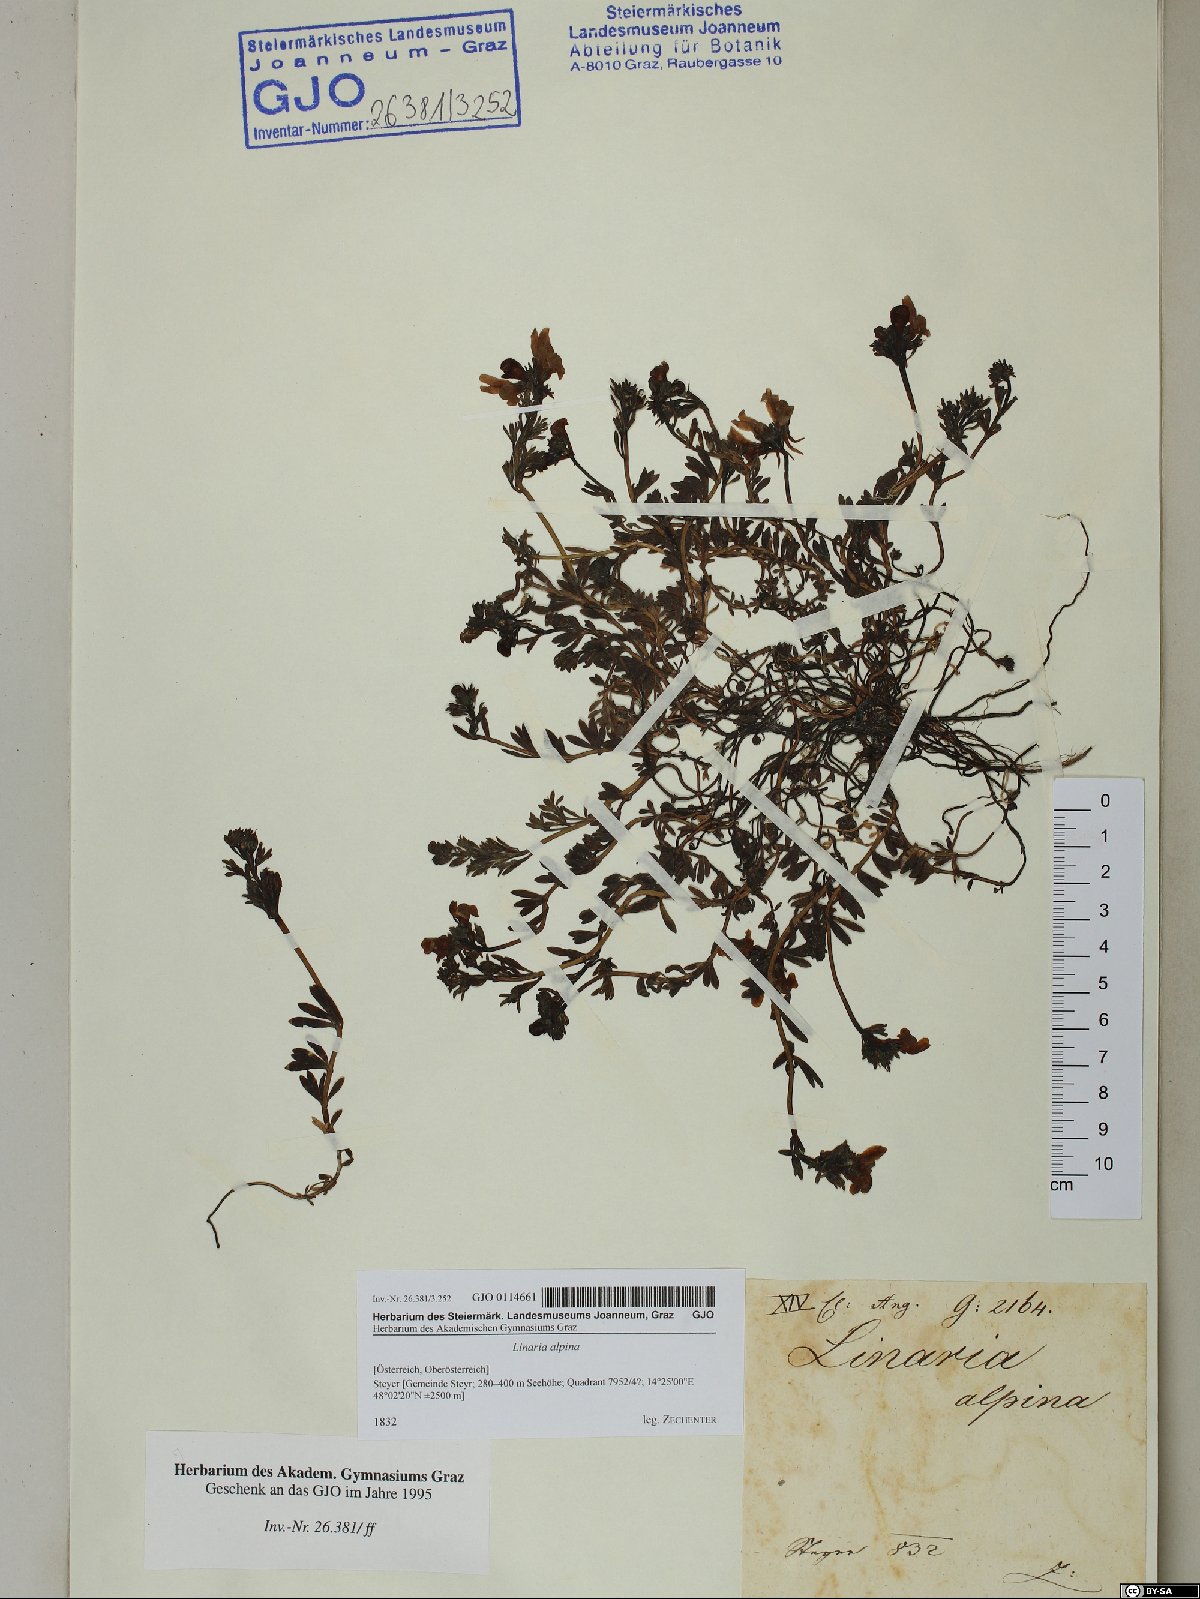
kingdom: Plantae
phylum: Tracheophyta
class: Magnoliopsida
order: Lamiales
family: Plantaginaceae
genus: Linaria
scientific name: Linaria alpina
